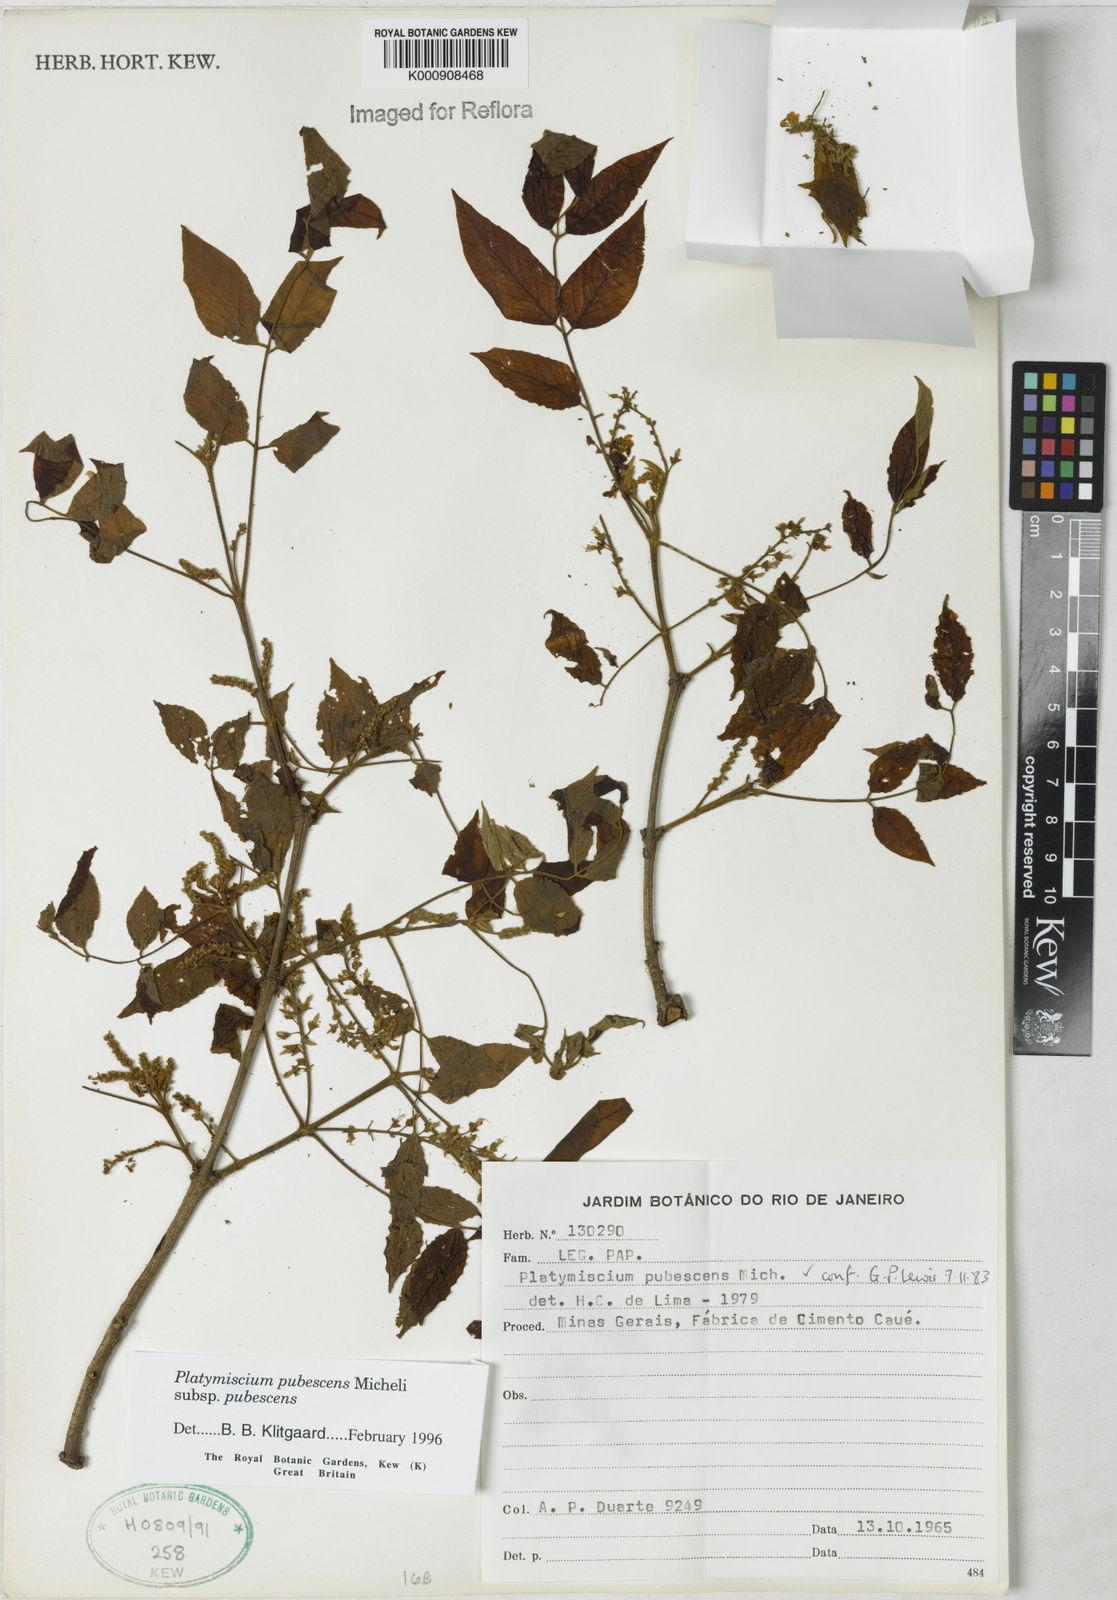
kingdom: Plantae
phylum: Tracheophyta
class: Magnoliopsida
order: Fabales
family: Fabaceae
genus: Platymiscium
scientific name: Platymiscium pubescens
